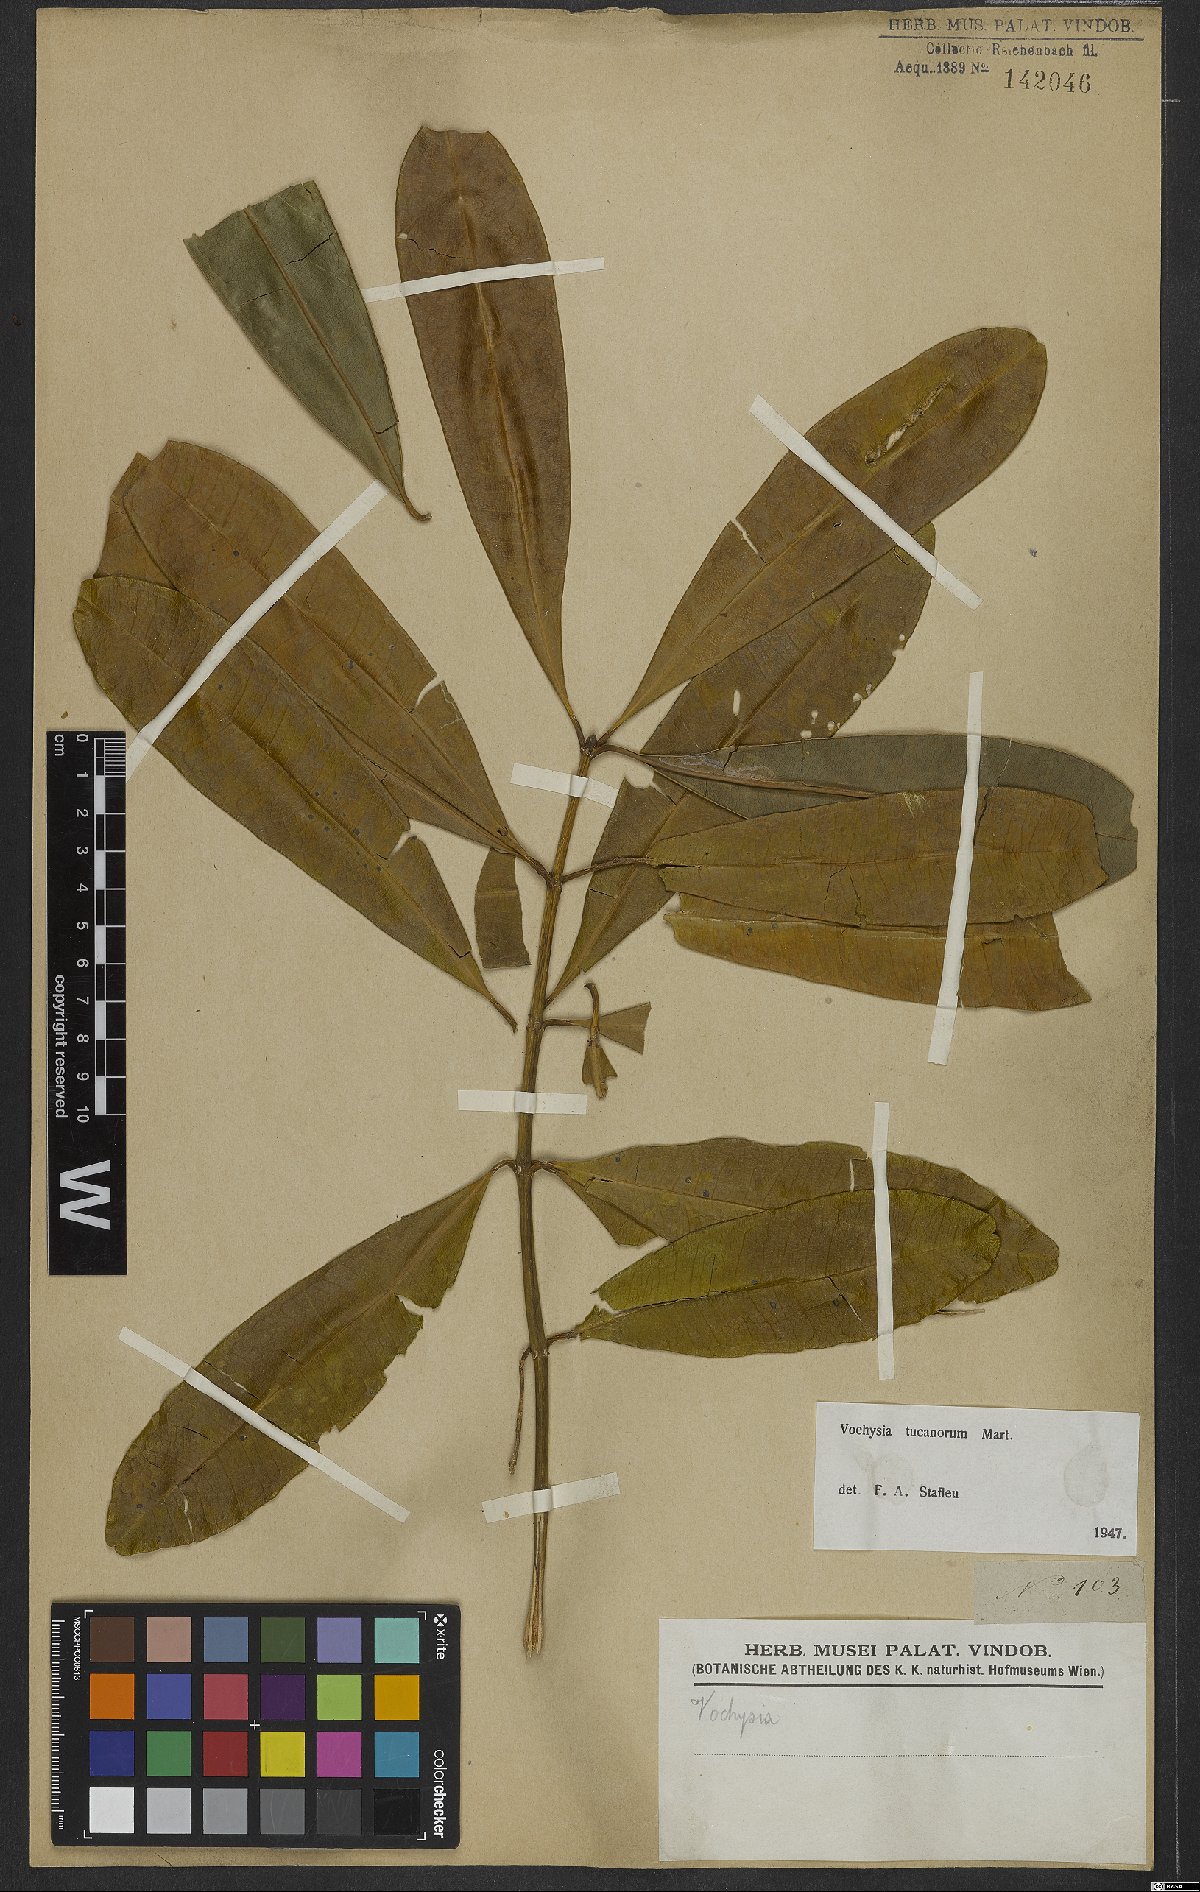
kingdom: Plantae
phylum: Tracheophyta
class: Magnoliopsida
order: Myrtales
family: Vochysiaceae
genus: Vochysia
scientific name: Vochysia tucanorum
